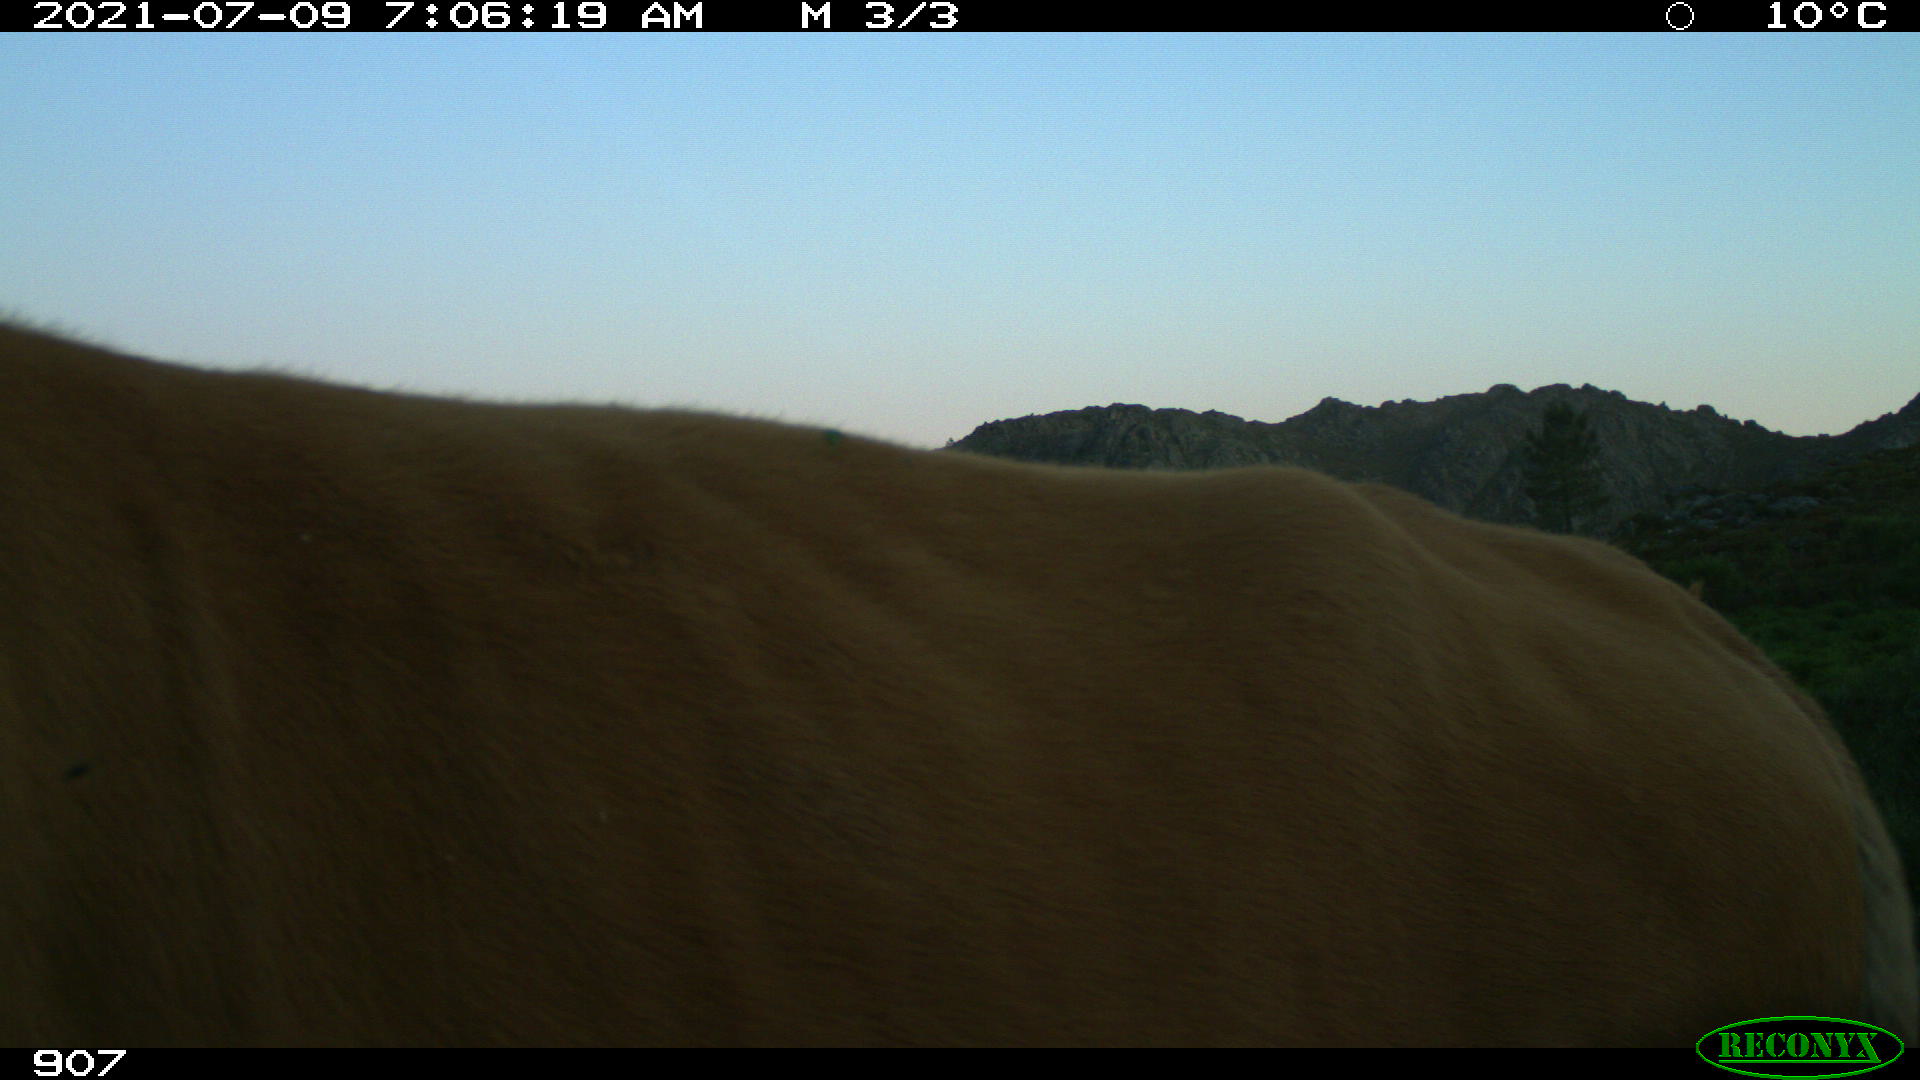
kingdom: Animalia
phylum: Chordata
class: Mammalia
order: Artiodactyla
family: Bovidae
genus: Bos
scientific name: Bos taurus
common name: Domesticated cattle
